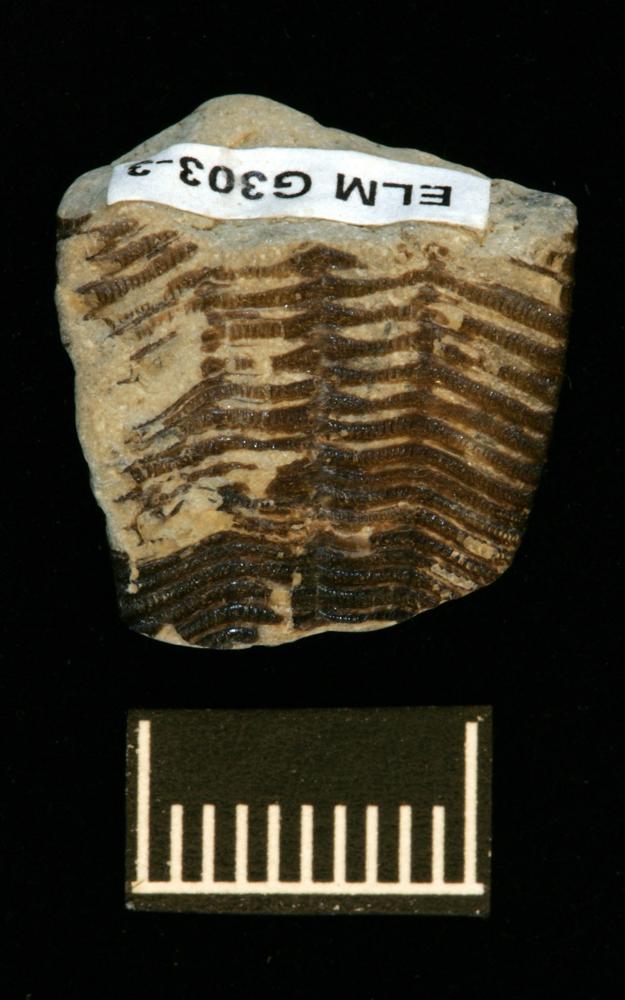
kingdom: Animalia
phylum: Cnidaria
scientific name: Cnidaria
